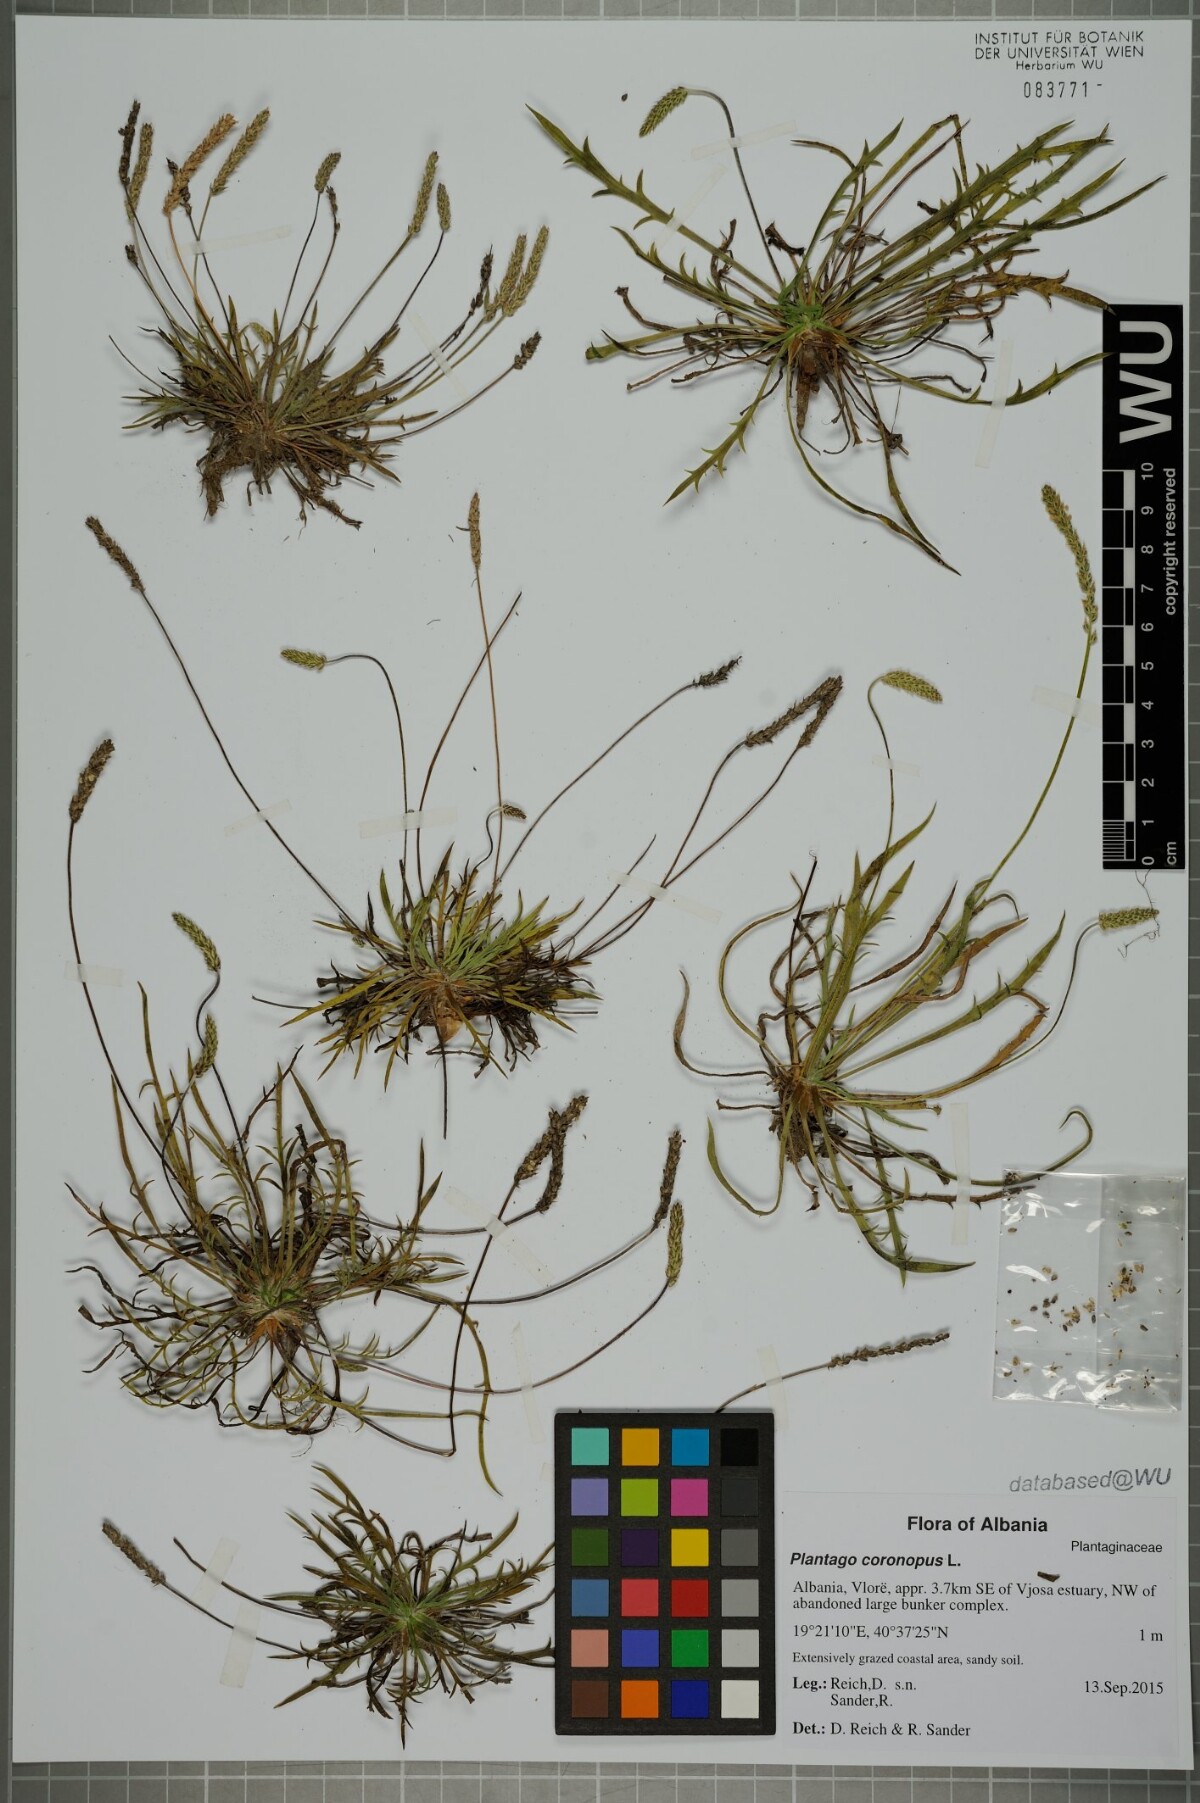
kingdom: Plantae
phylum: Tracheophyta
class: Magnoliopsida
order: Lamiales
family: Plantaginaceae
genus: Plantago
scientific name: Plantago coronopus
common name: Buck's-horn plantain
